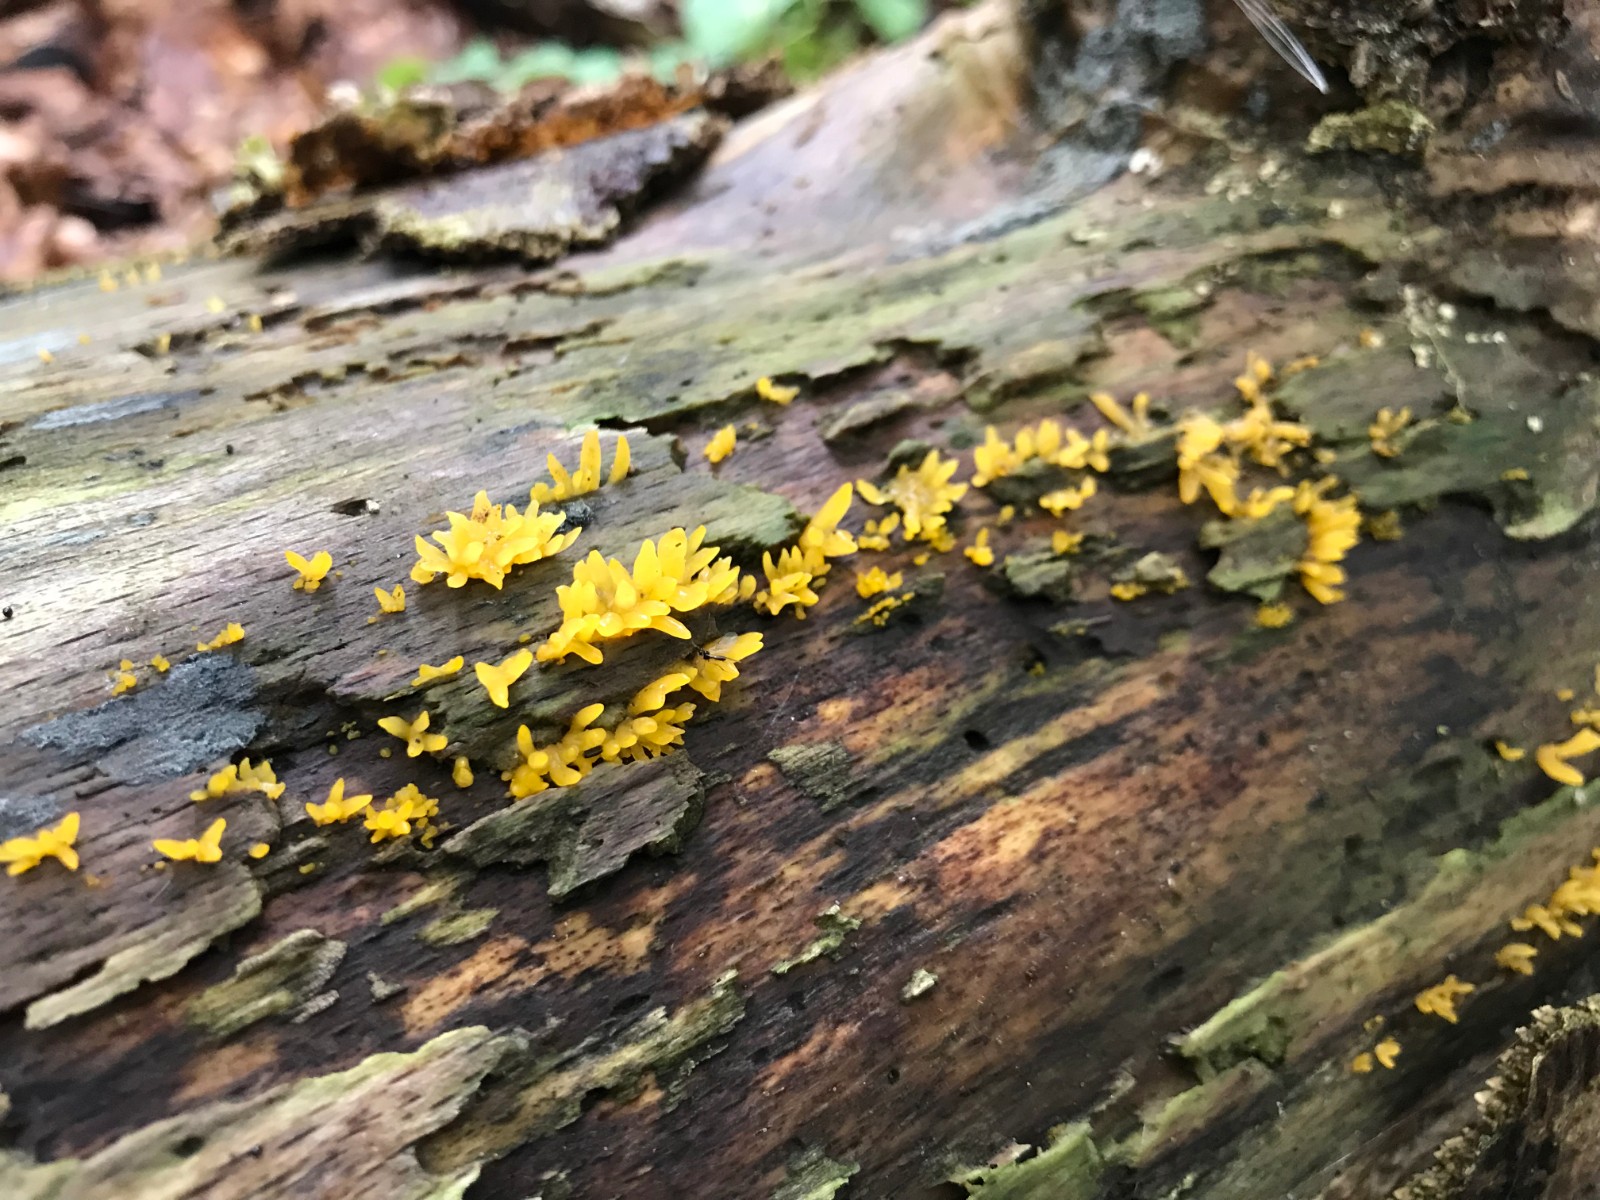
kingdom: Fungi
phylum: Basidiomycota
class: Dacrymycetes
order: Dacrymycetales
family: Dacrymycetaceae
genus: Calocera
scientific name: Calocera cornea
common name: liden guldgaffel
